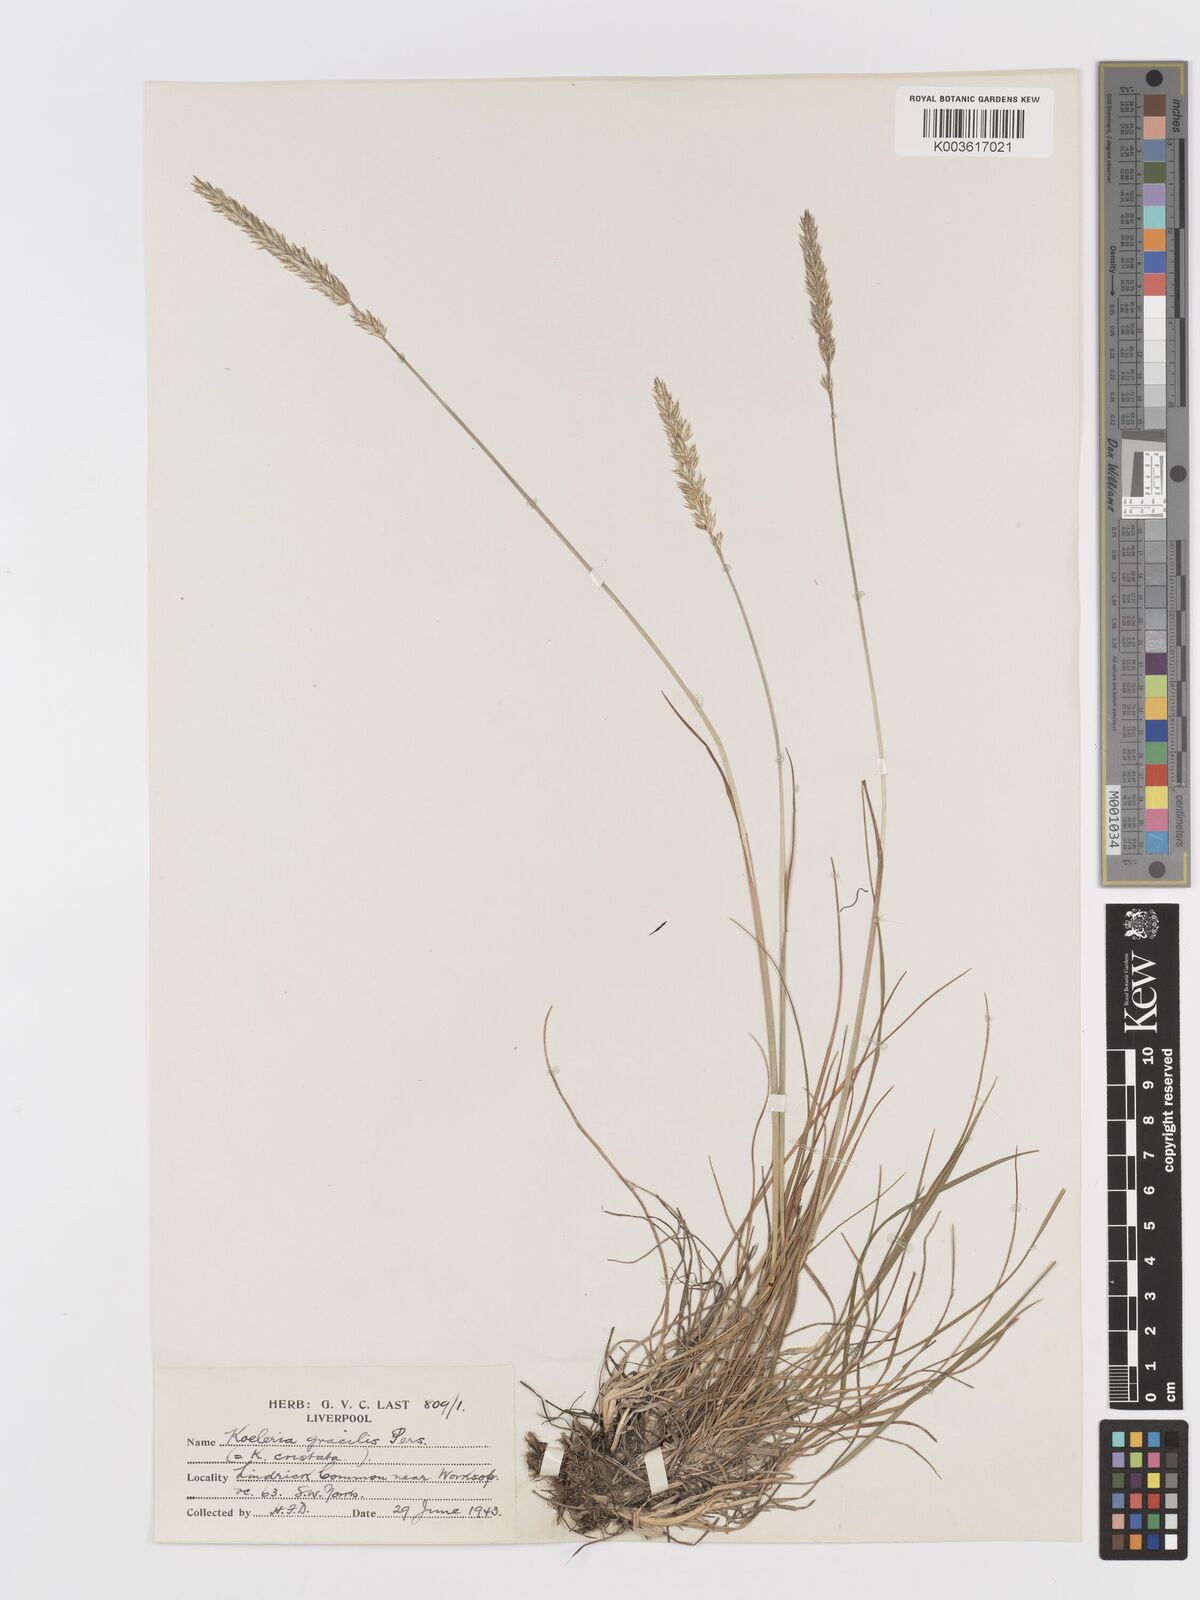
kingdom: Plantae
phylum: Tracheophyta
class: Liliopsida
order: Poales
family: Poaceae
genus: Koeleria
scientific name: Koeleria macrantha
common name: Crested hair-grass
